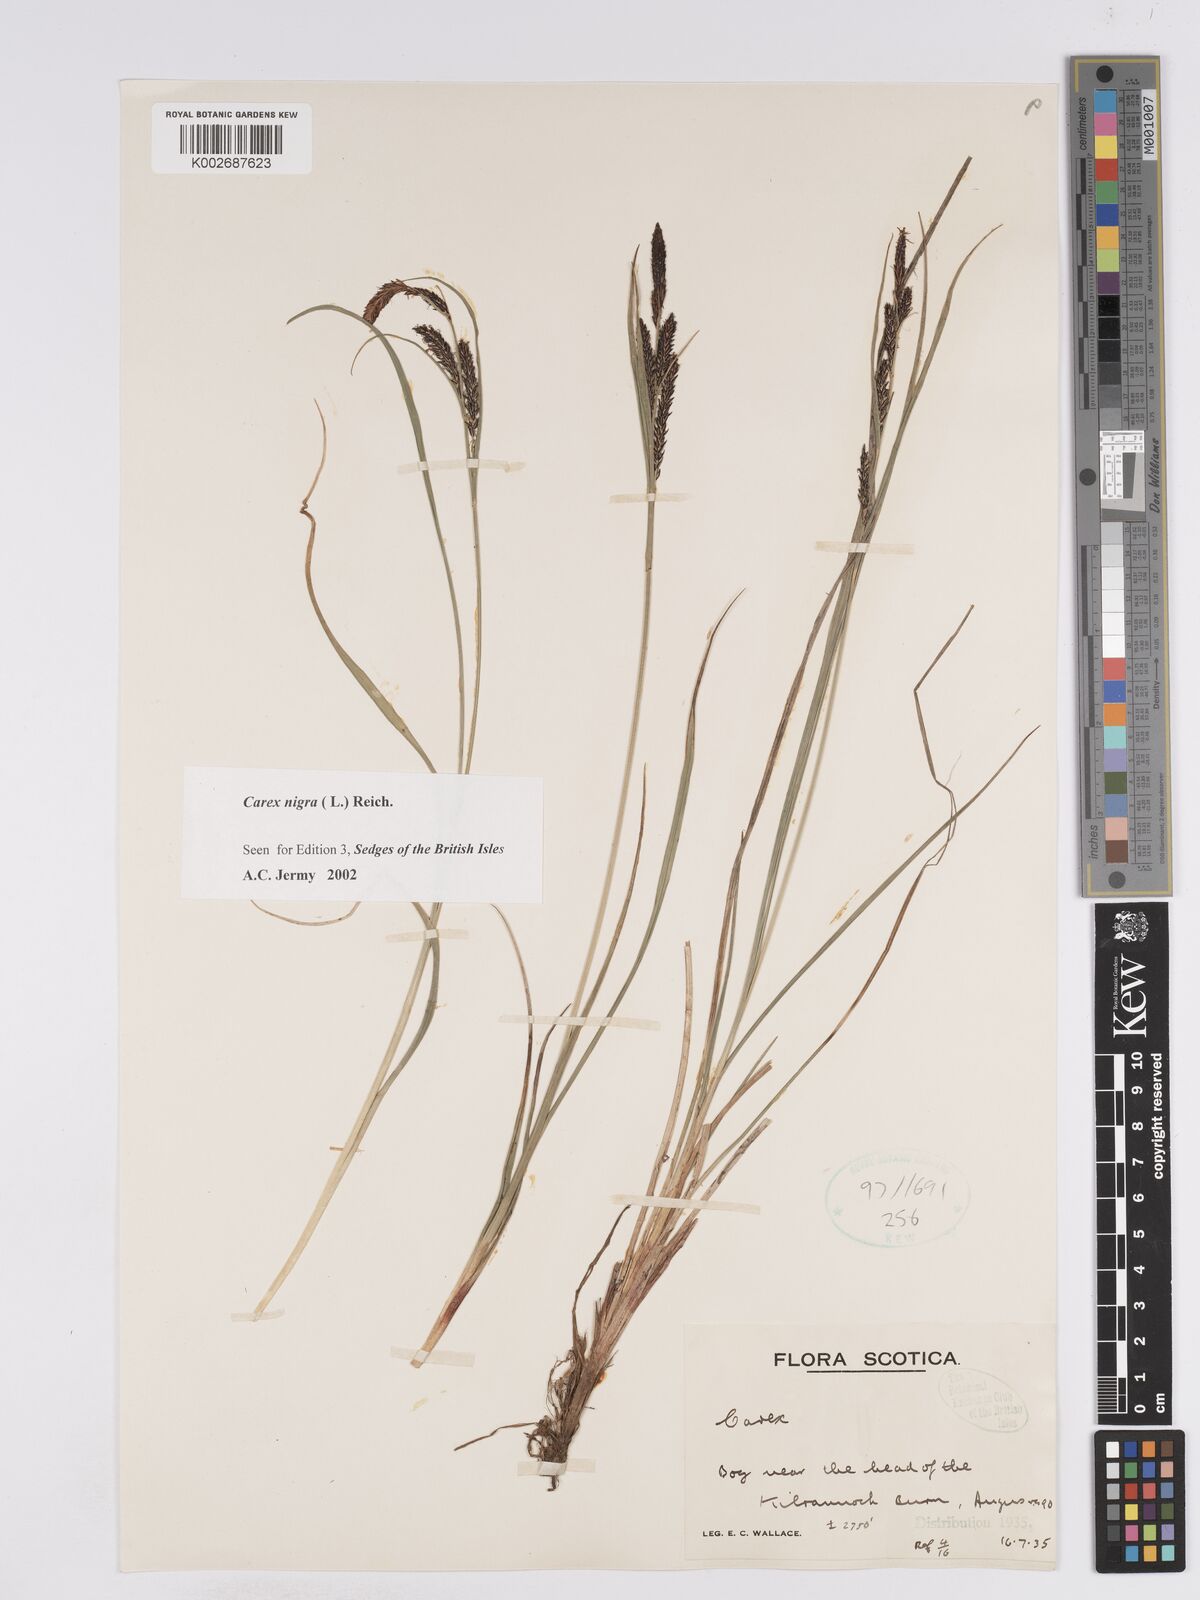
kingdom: Plantae
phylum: Tracheophyta
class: Liliopsida
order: Poales
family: Cyperaceae
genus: Carex
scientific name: Carex nigra
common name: Common sedge
